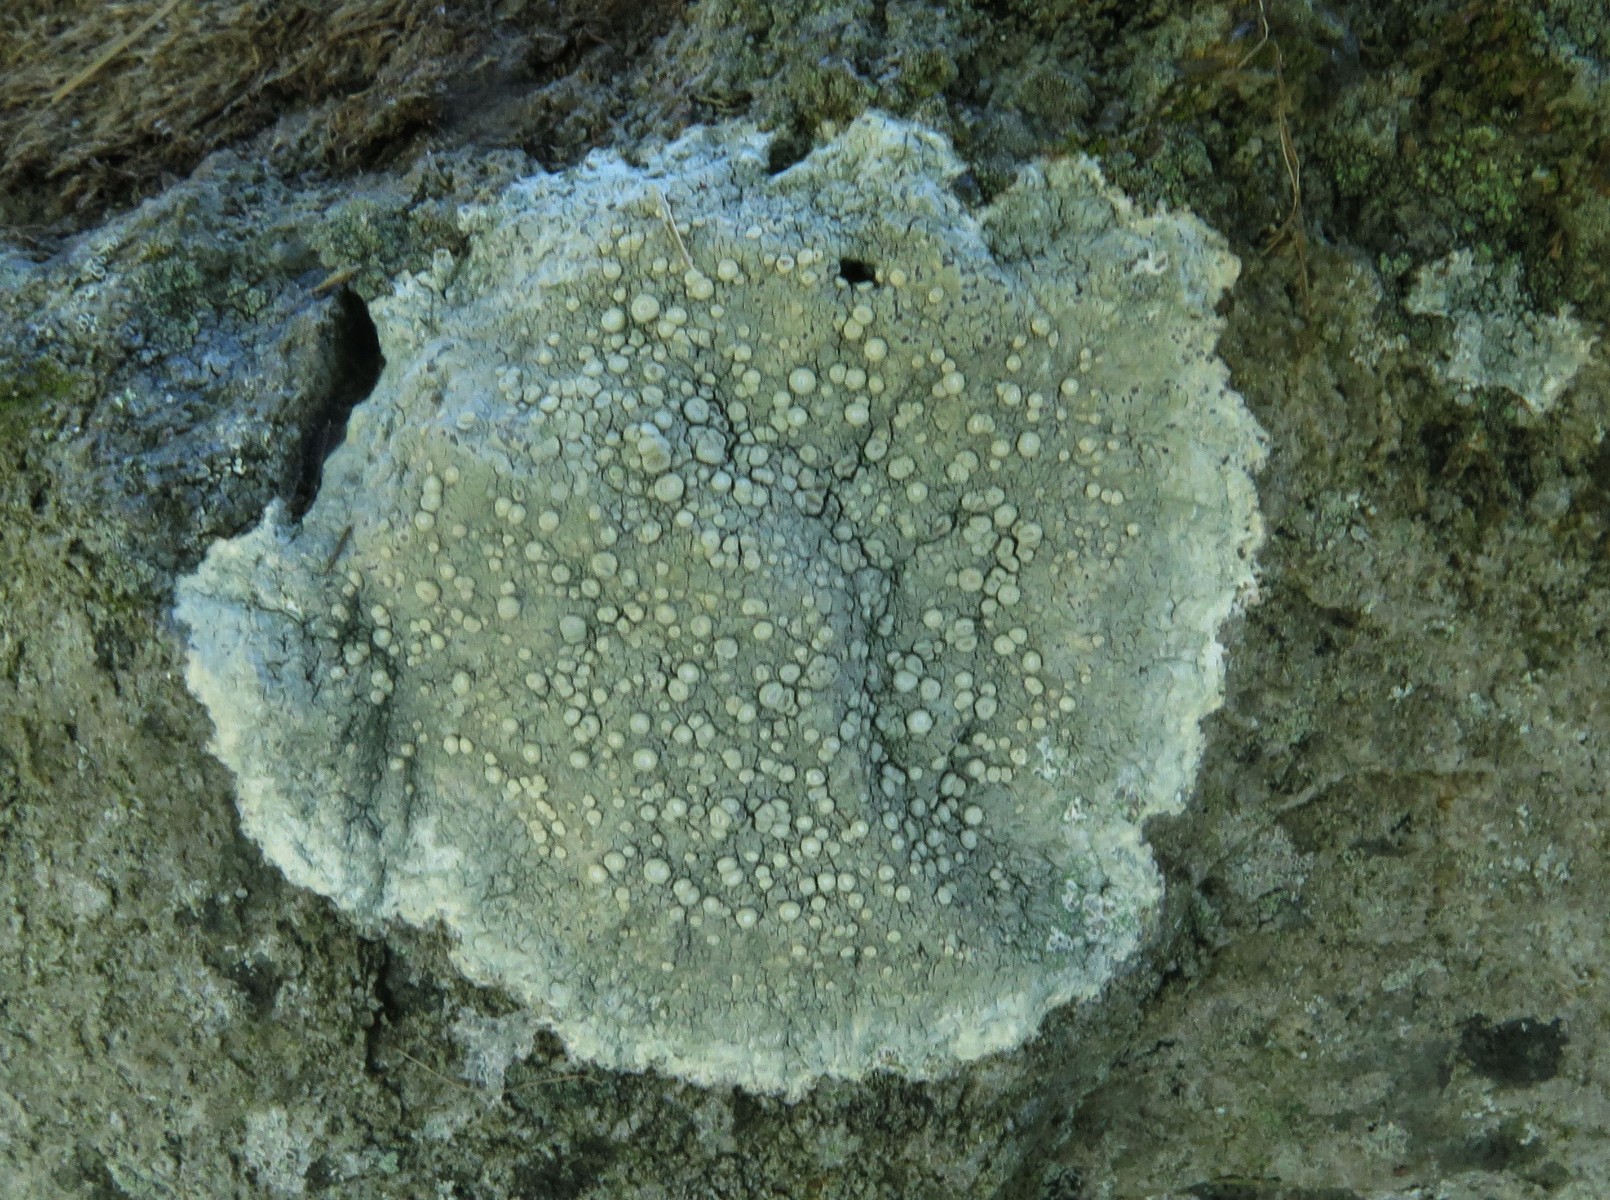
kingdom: Fungi
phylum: Ascomycota
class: Lecanoromycetes
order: Pertusariales
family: Ochrolechiaceae
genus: Ochrolechia
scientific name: Ochrolechia parella
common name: almindelig blegskivelav
